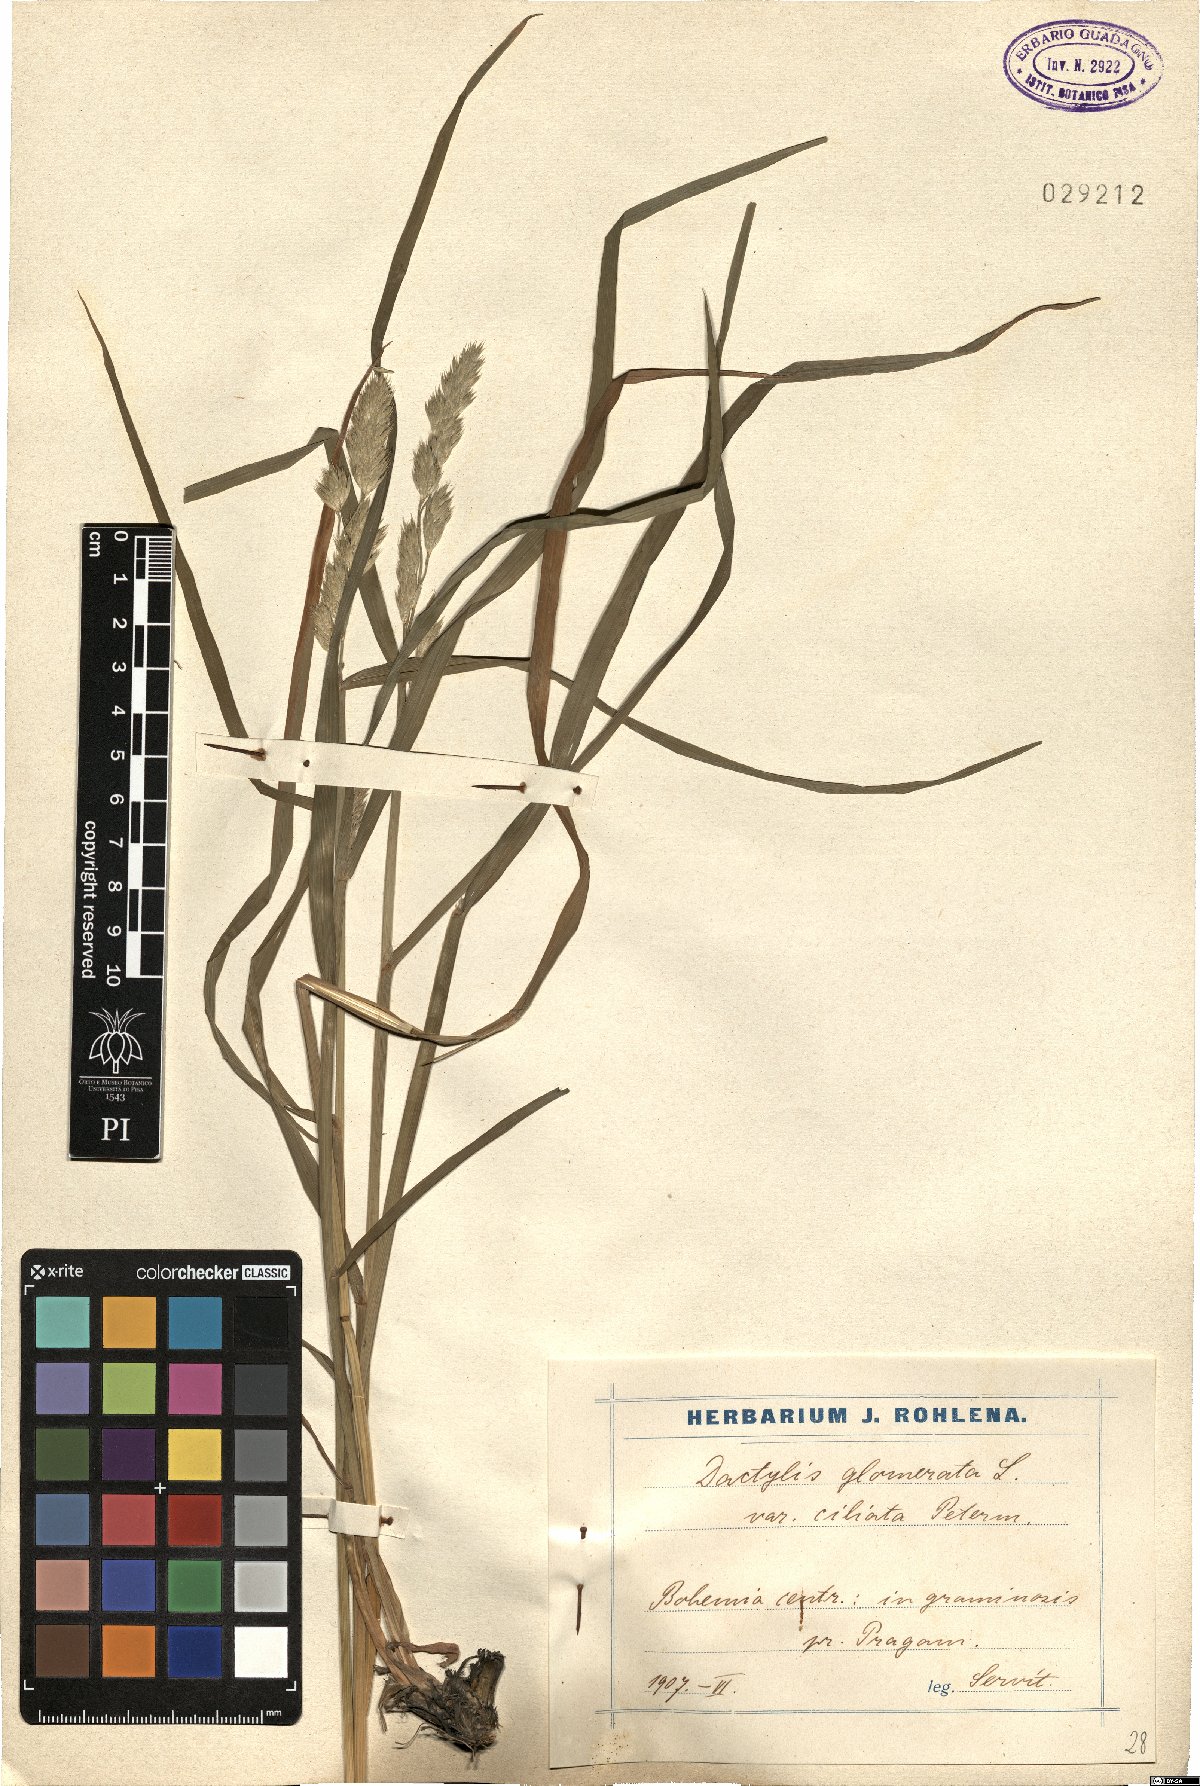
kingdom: Plantae
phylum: Tracheophyta
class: Liliopsida
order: Poales
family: Poaceae
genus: Dactylis
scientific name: Dactylis glomerata
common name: Orchardgrass
